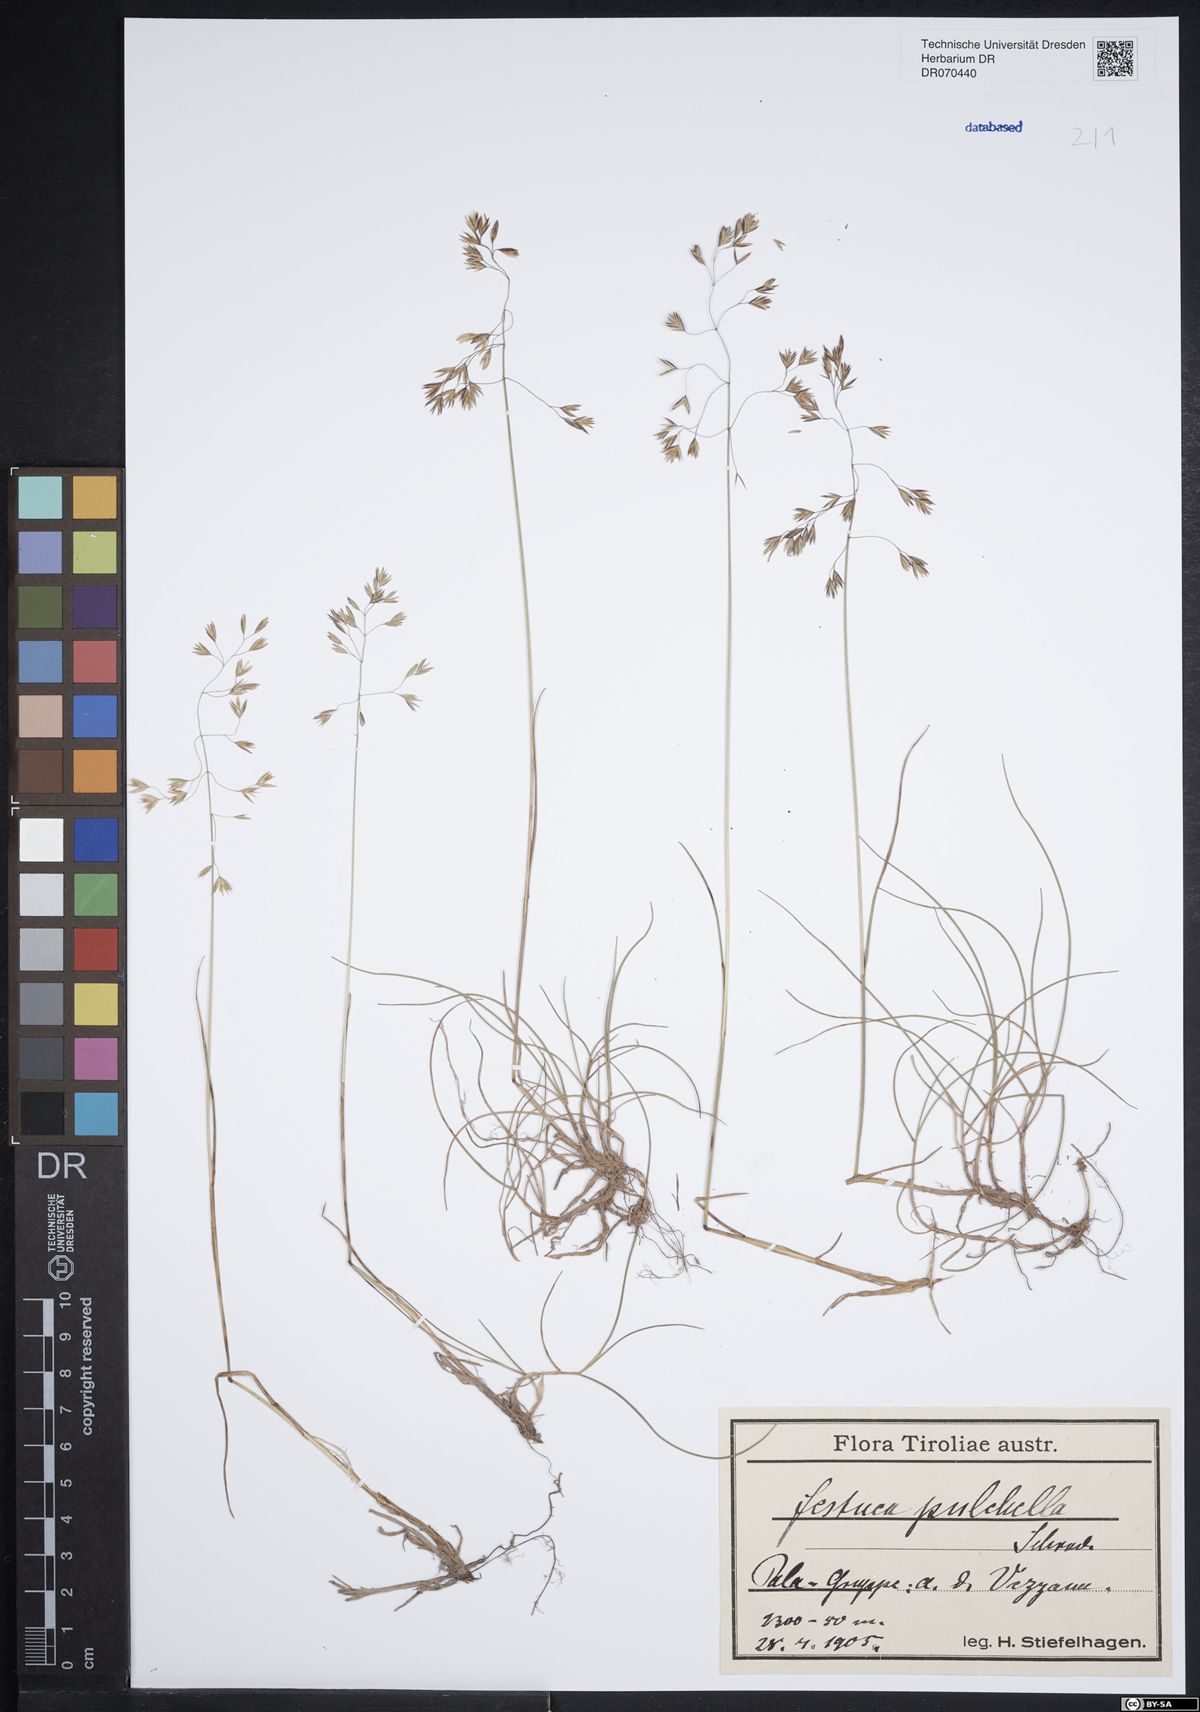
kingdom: Plantae
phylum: Tracheophyta
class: Liliopsida
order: Poales
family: Poaceae
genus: Festuca
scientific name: Festuca pulchella
